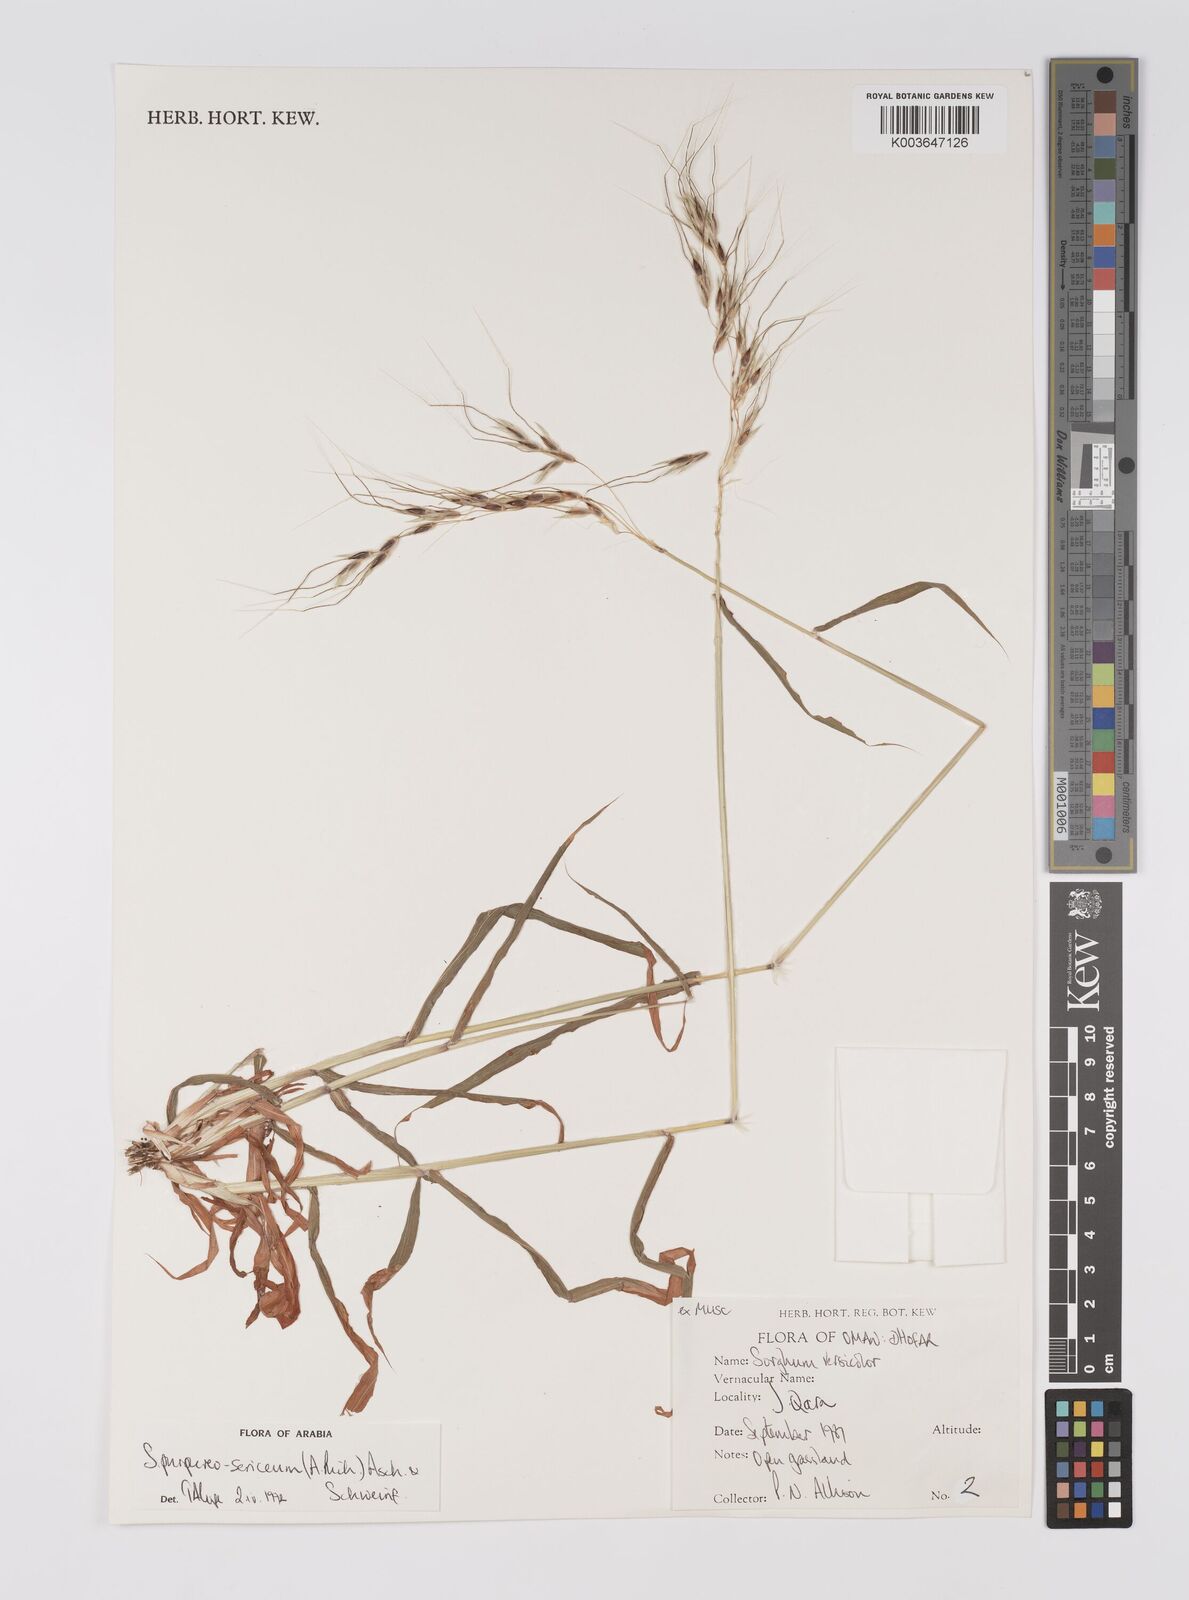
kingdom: Plantae
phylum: Tracheophyta
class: Liliopsida
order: Poales
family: Poaceae
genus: Sarga
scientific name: Sarga purpureosericea
